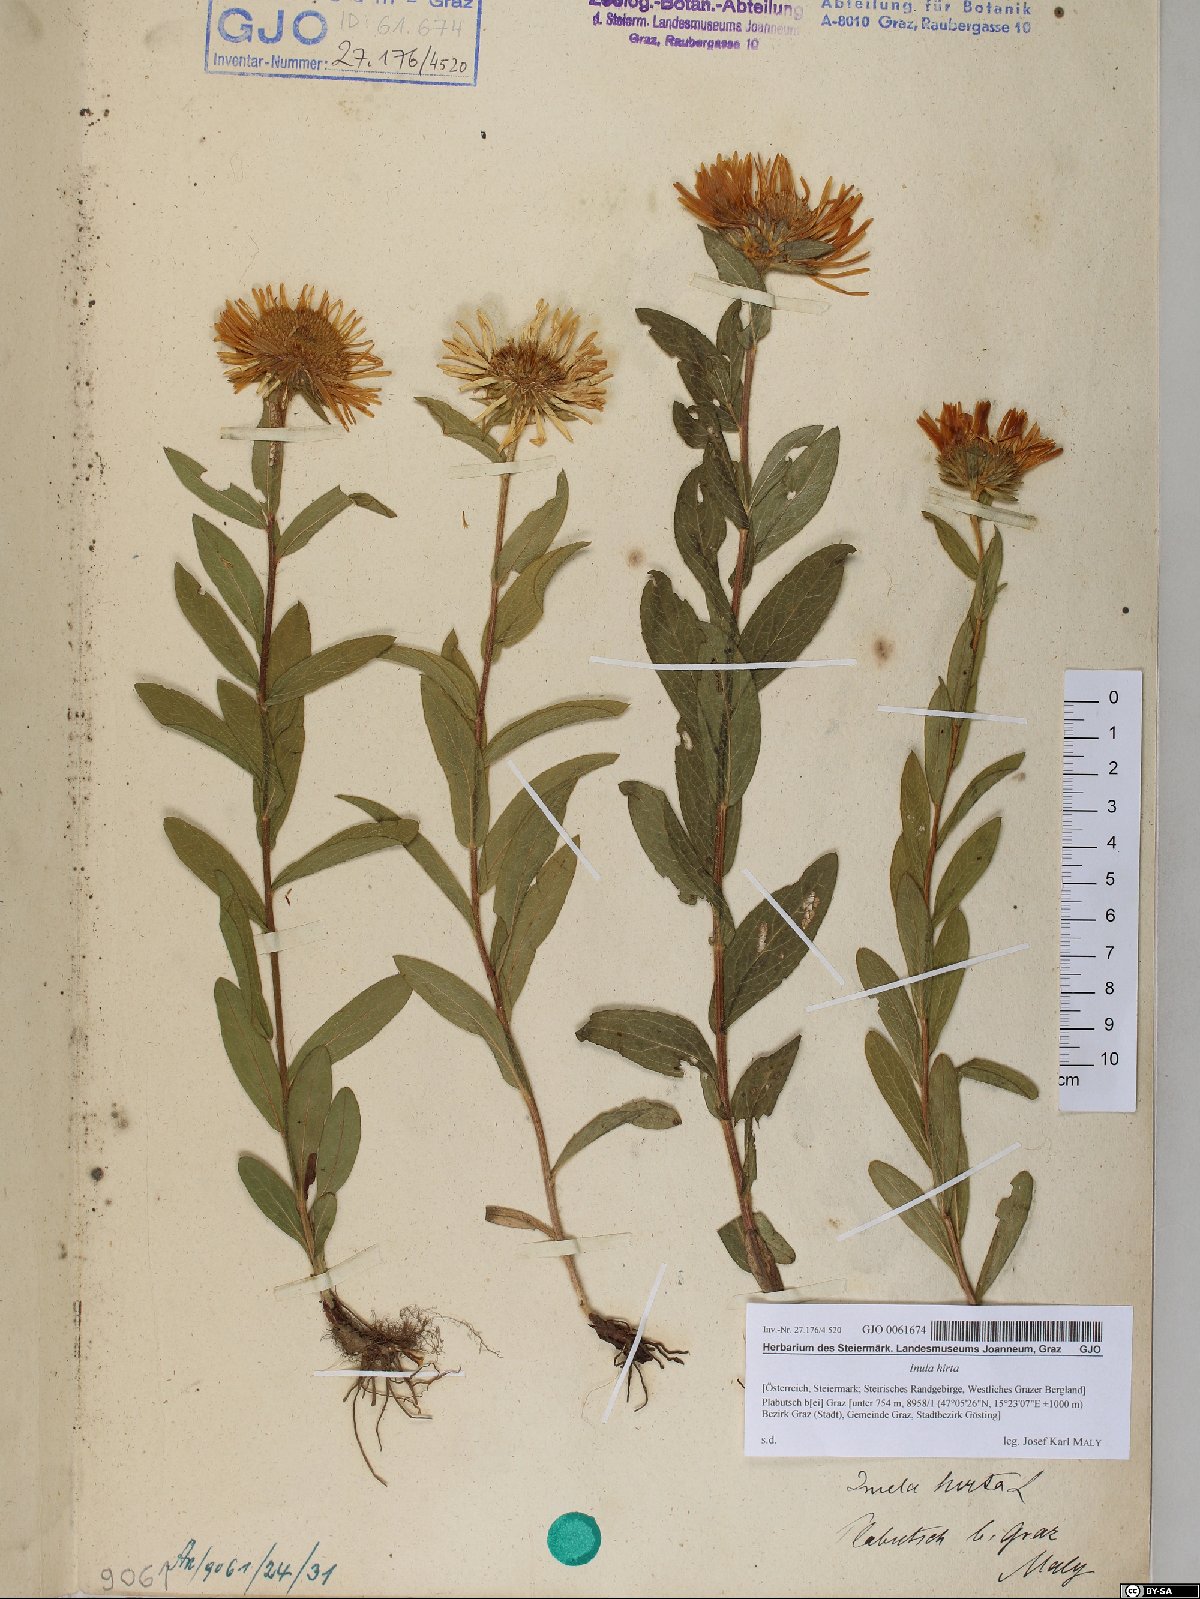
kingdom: Plantae
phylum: Tracheophyta
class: Magnoliopsida
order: Asterales
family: Asteraceae
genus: Pentanema
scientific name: Pentanema hirtum
